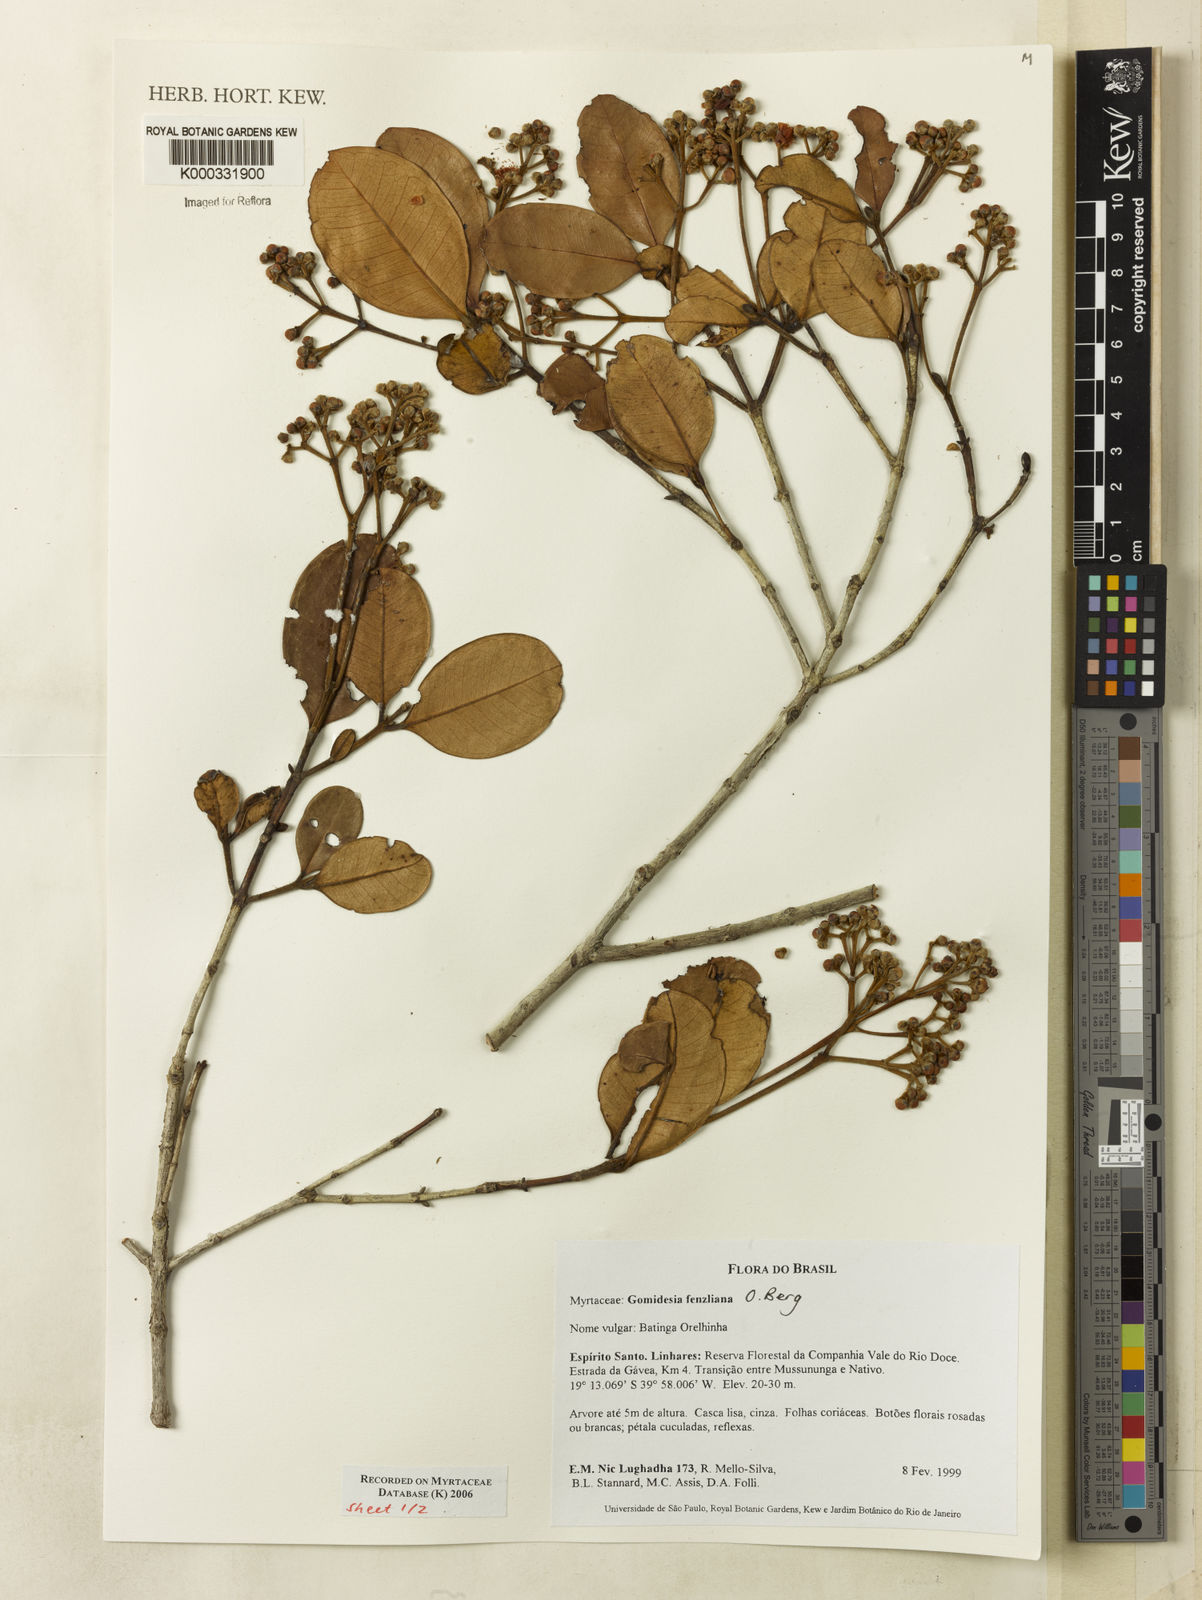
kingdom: Plantae
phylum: Tracheophyta
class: Magnoliopsida
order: Myrtales
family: Myrtaceae
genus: Myrcia
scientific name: Myrcia ilheosensis
